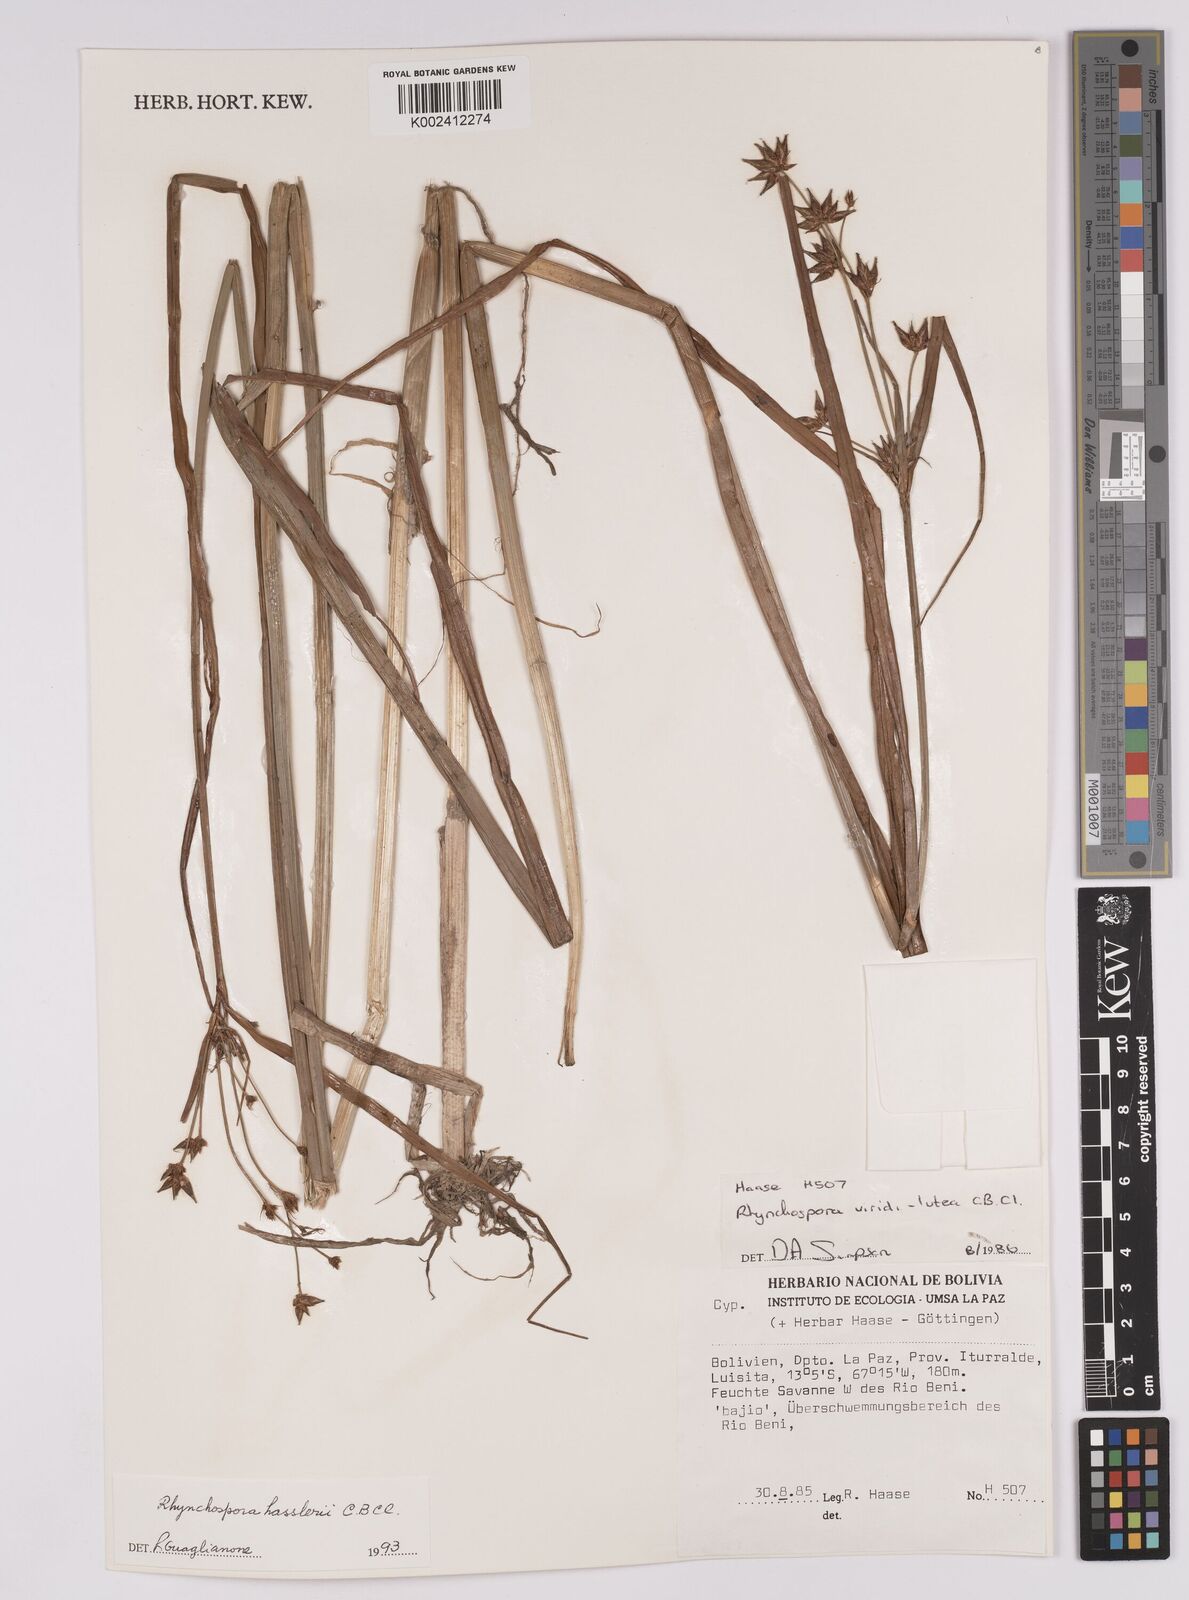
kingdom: Plantae
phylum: Tracheophyta
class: Liliopsida
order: Poales
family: Cyperaceae
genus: Rhynchospora
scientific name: Rhynchospora hassleri
